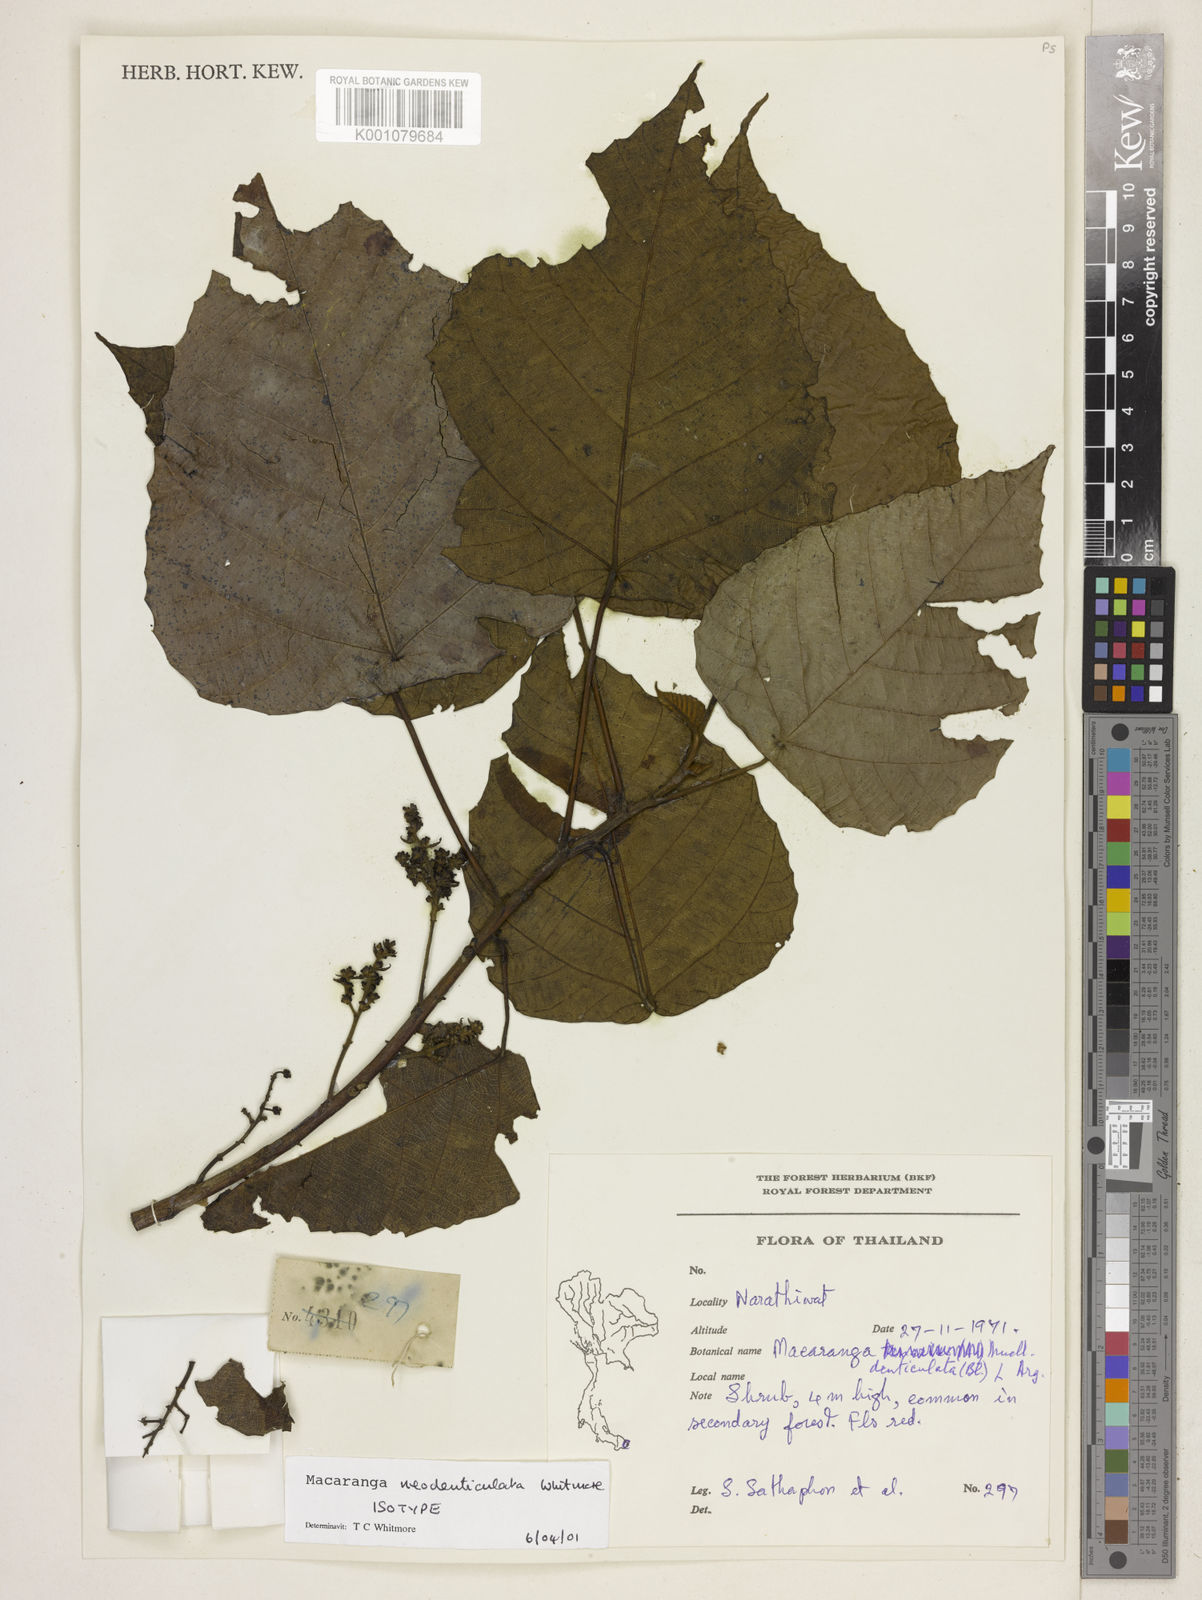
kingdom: Plantae
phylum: Tracheophyta
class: Magnoliopsida
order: Malpighiales
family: Euphorbiaceae
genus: Macaranga
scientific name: Macaranga neodenticulata
